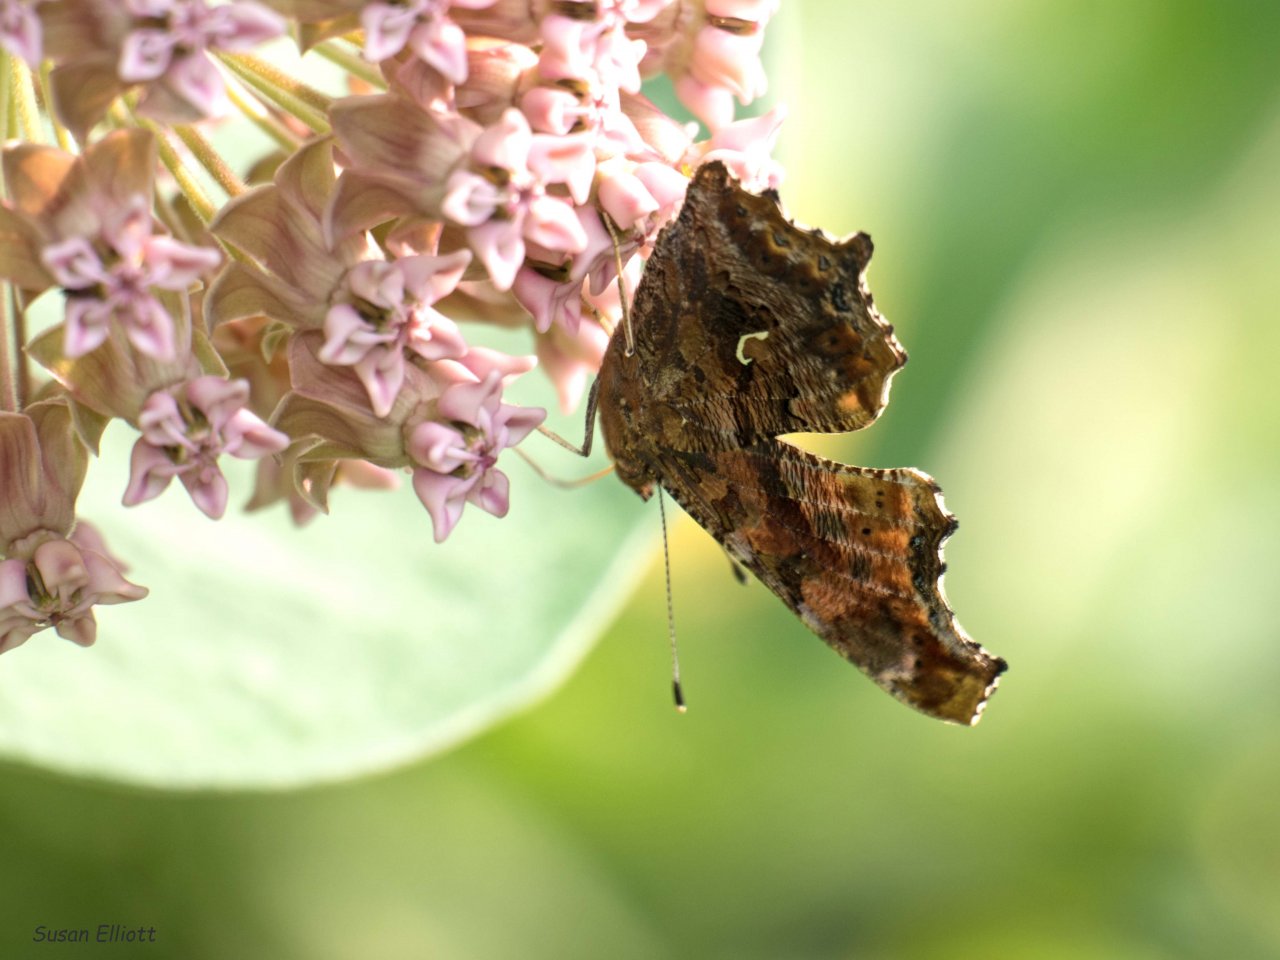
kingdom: Animalia
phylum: Arthropoda
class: Insecta
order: Lepidoptera
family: Nymphalidae
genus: Polygonia
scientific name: Polygonia comma
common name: Eastern Comma
